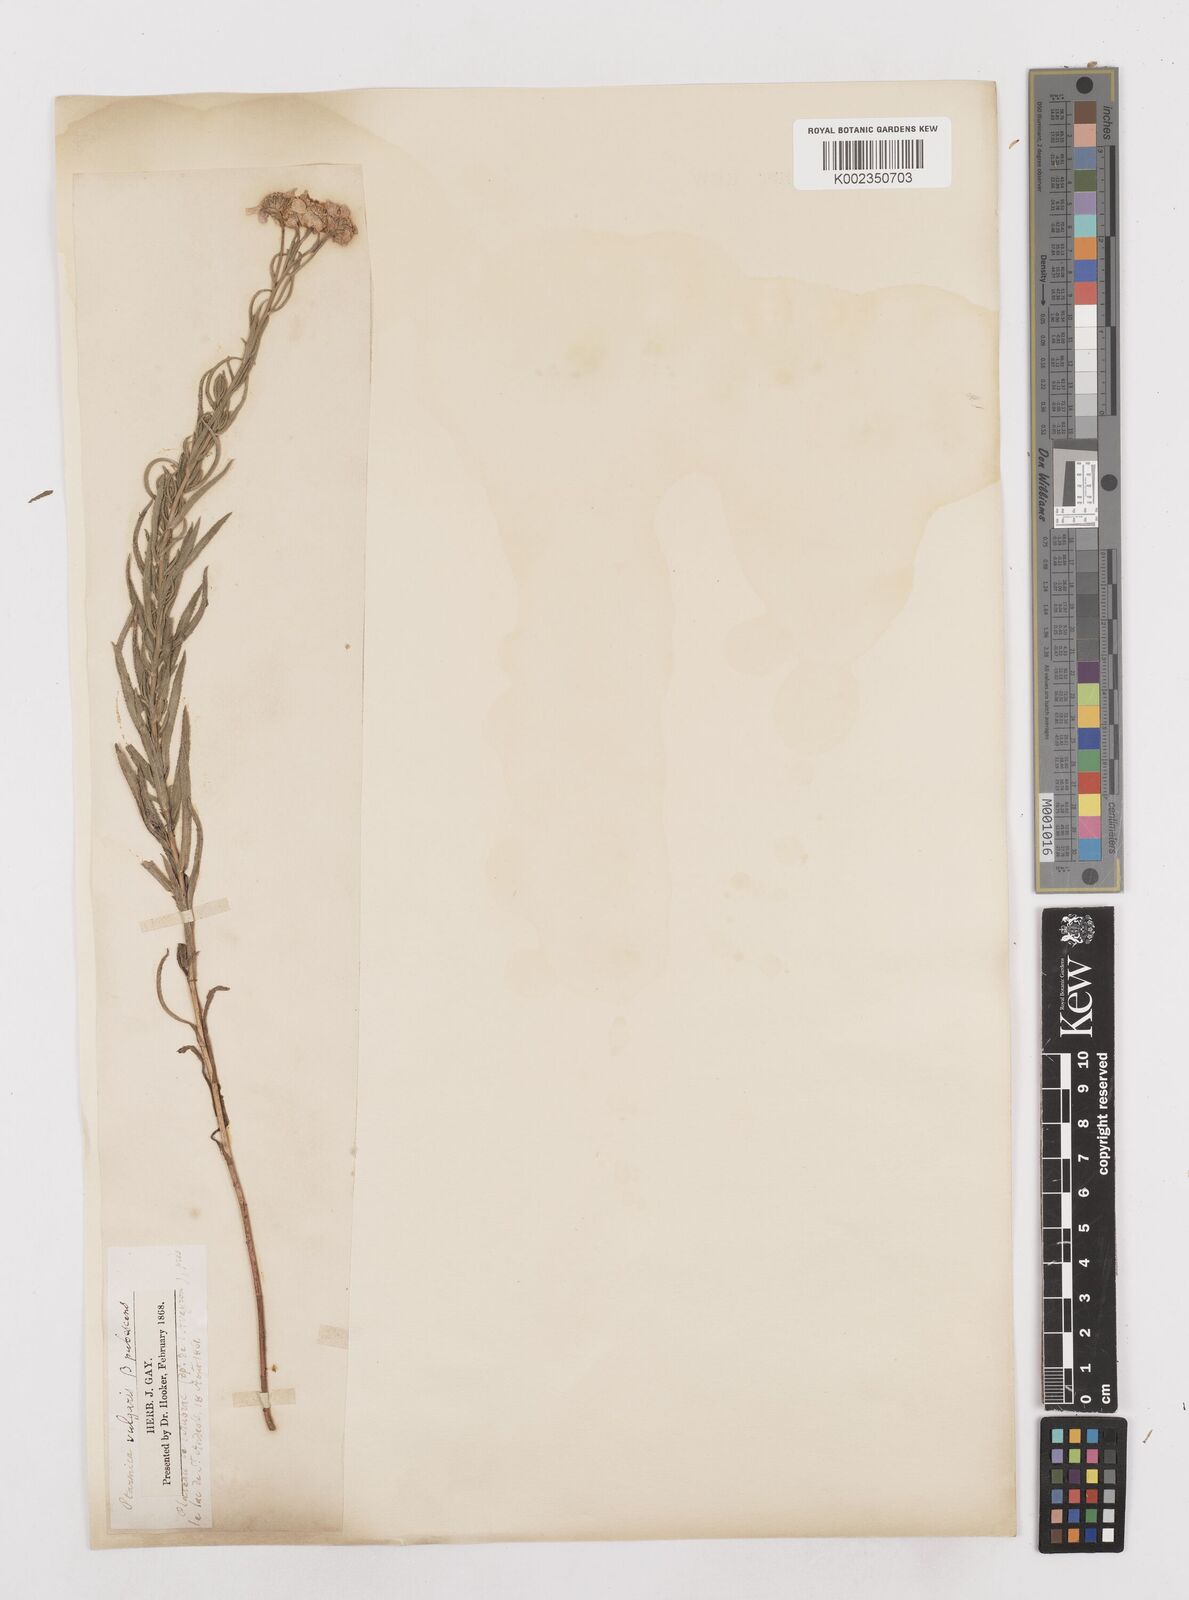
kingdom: Plantae
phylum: Tracheophyta
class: Magnoliopsida
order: Asterales
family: Asteraceae
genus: Achillea
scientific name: Achillea pyrenaica
